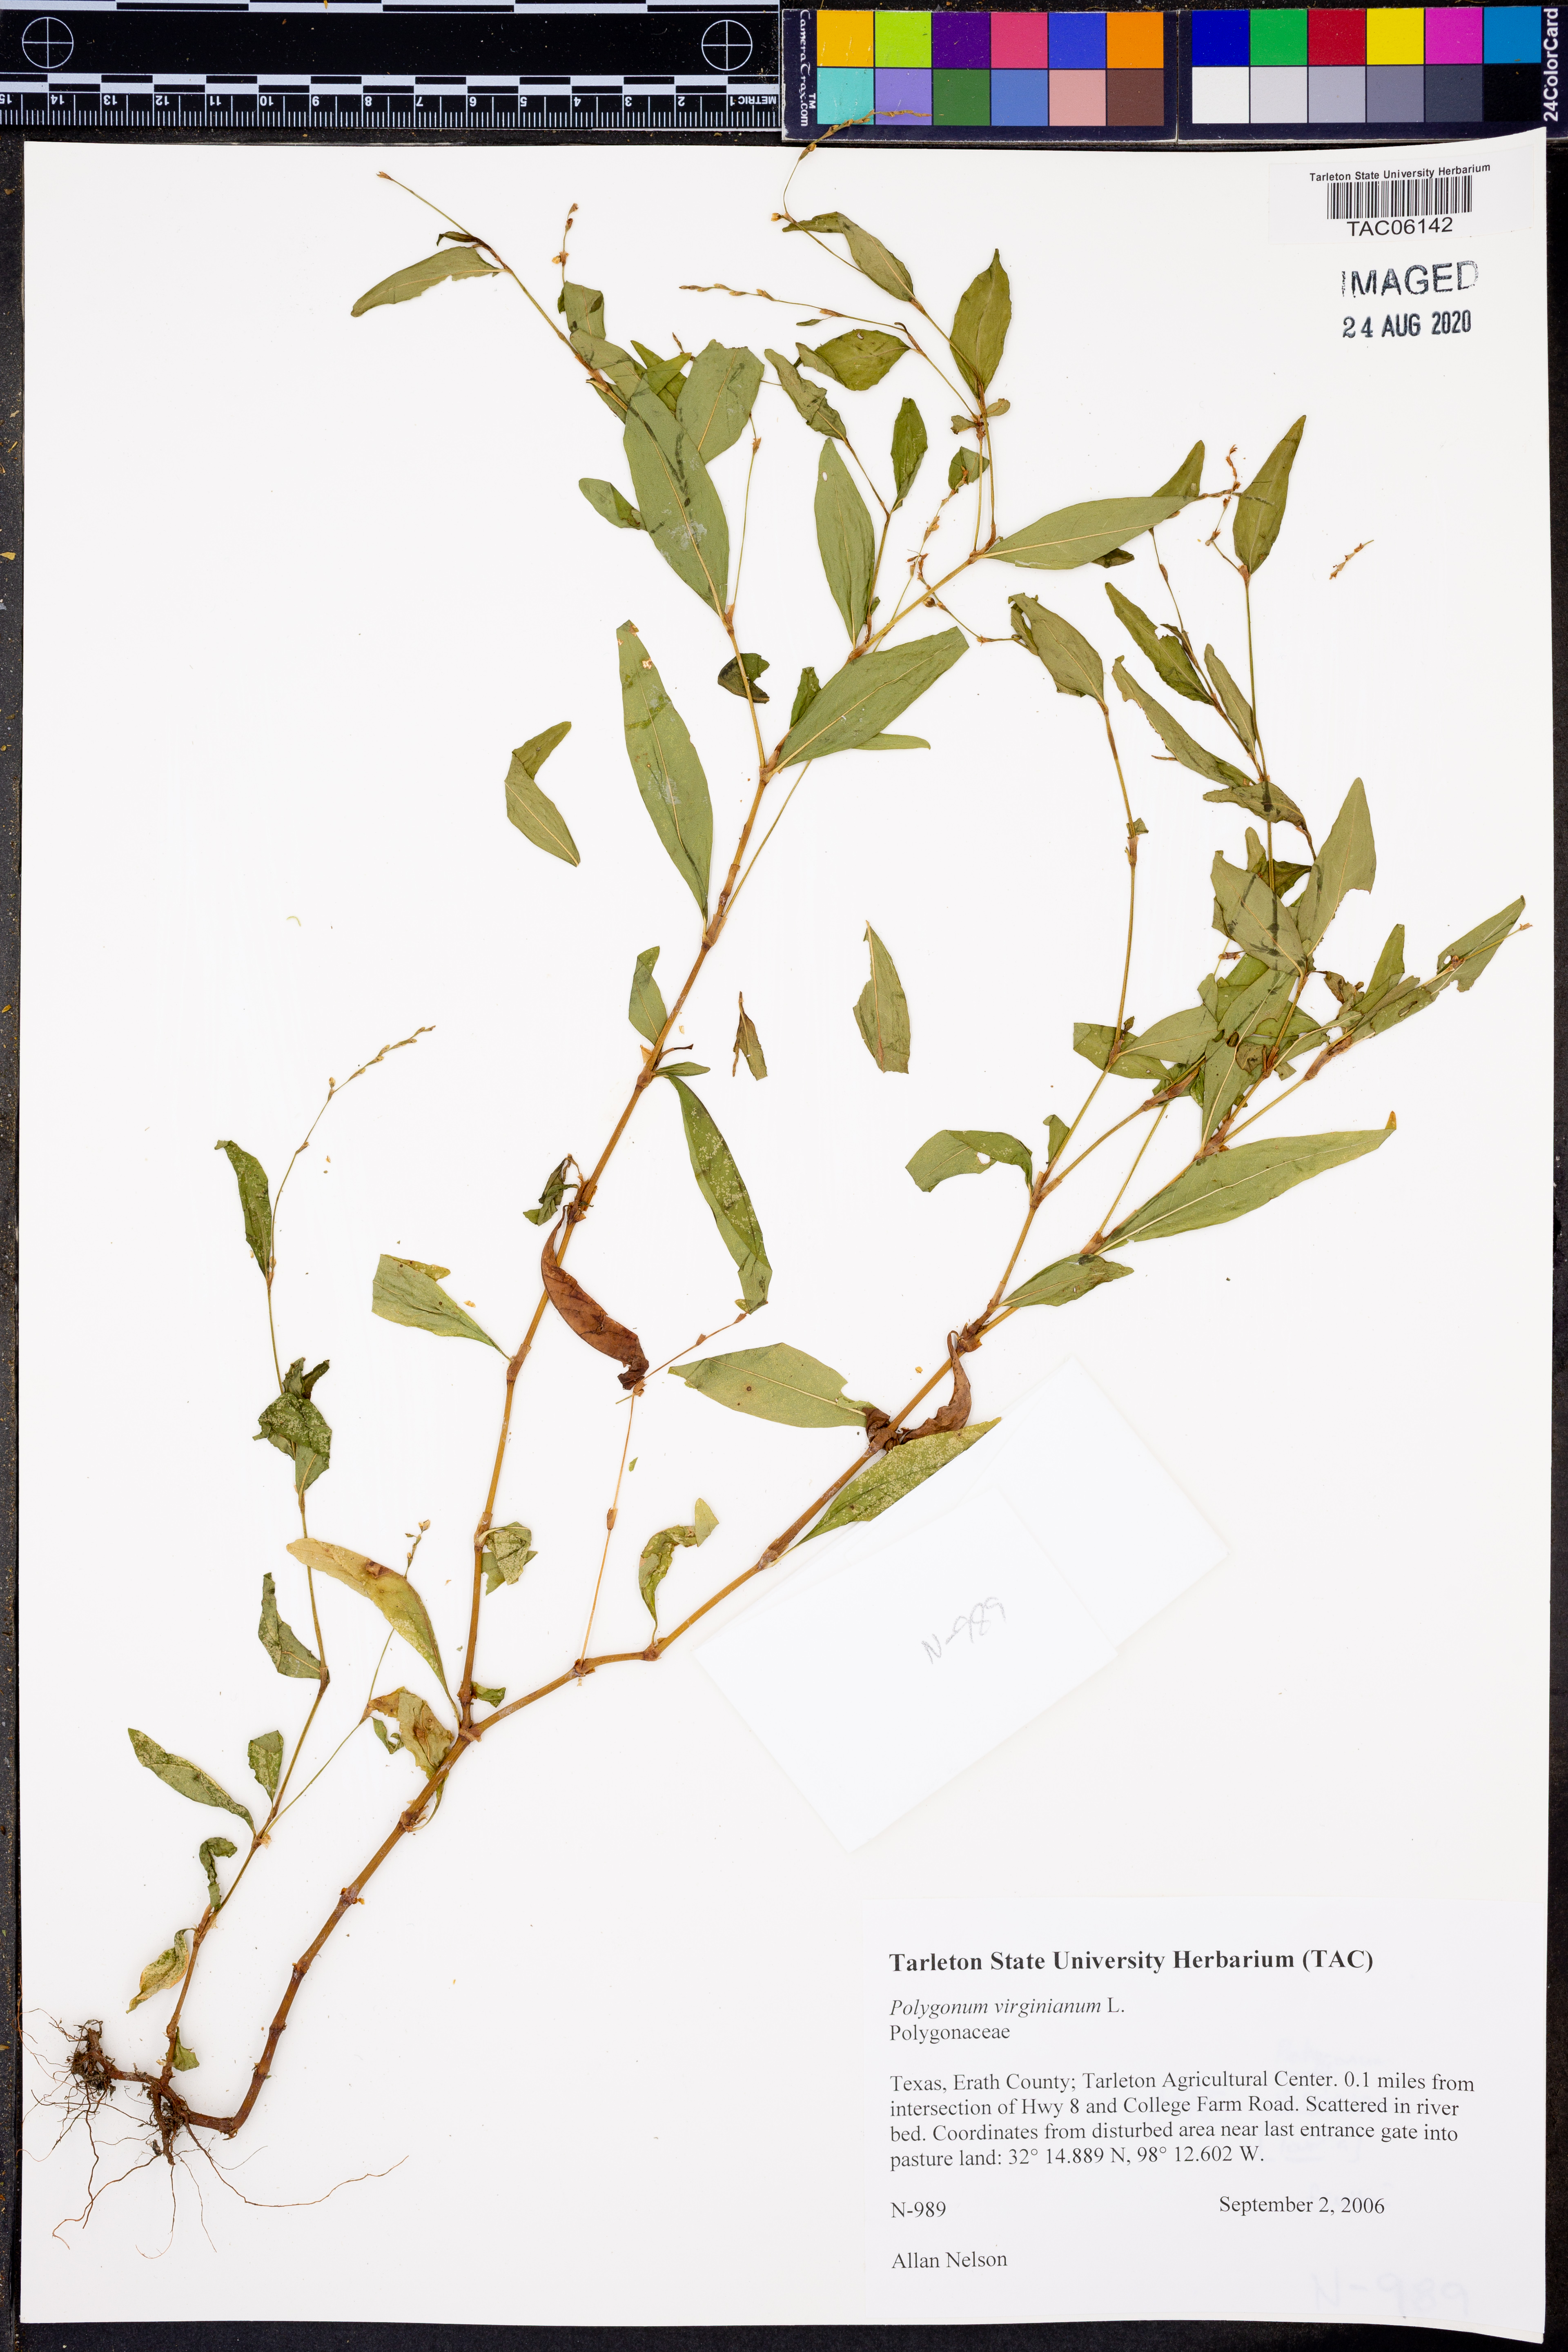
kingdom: Plantae
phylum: Tracheophyta
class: Magnoliopsida
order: Caryophyllales
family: Polygonaceae
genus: Persicaria
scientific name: Persicaria virginiana
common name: Jumpseed
